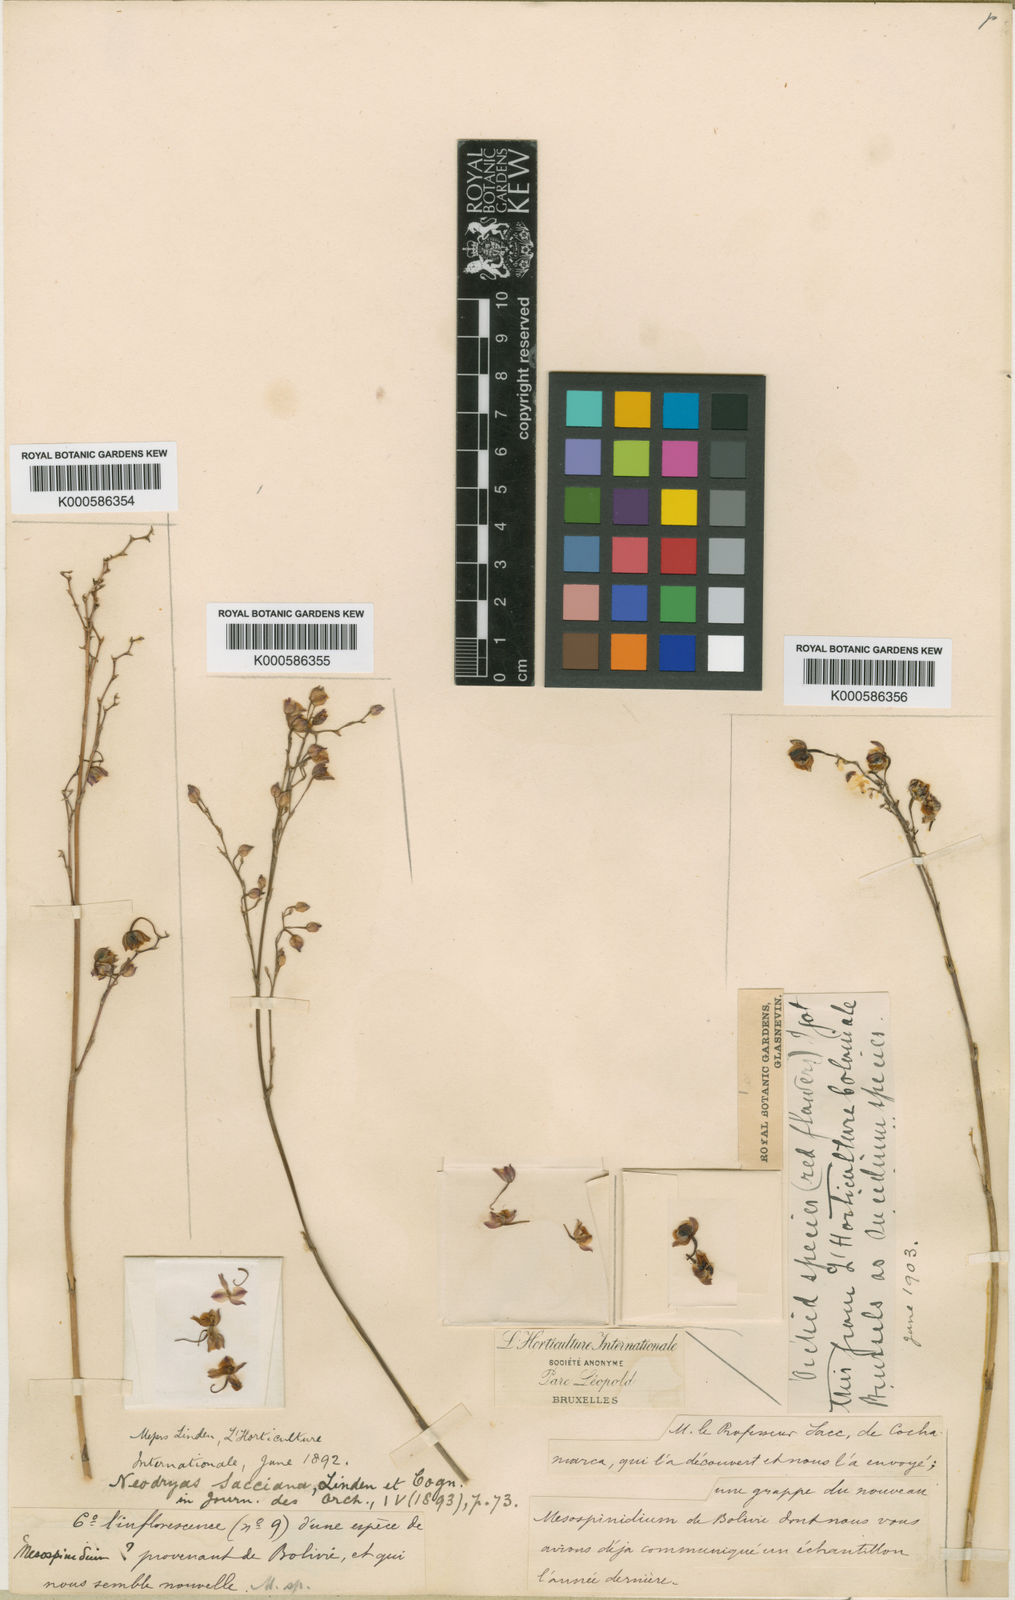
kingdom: Plantae
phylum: Tracheophyta
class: Liliopsida
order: Asparagales
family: Orchidaceae
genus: Cyrtochilum
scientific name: Cyrtochilum rhodoneurum
